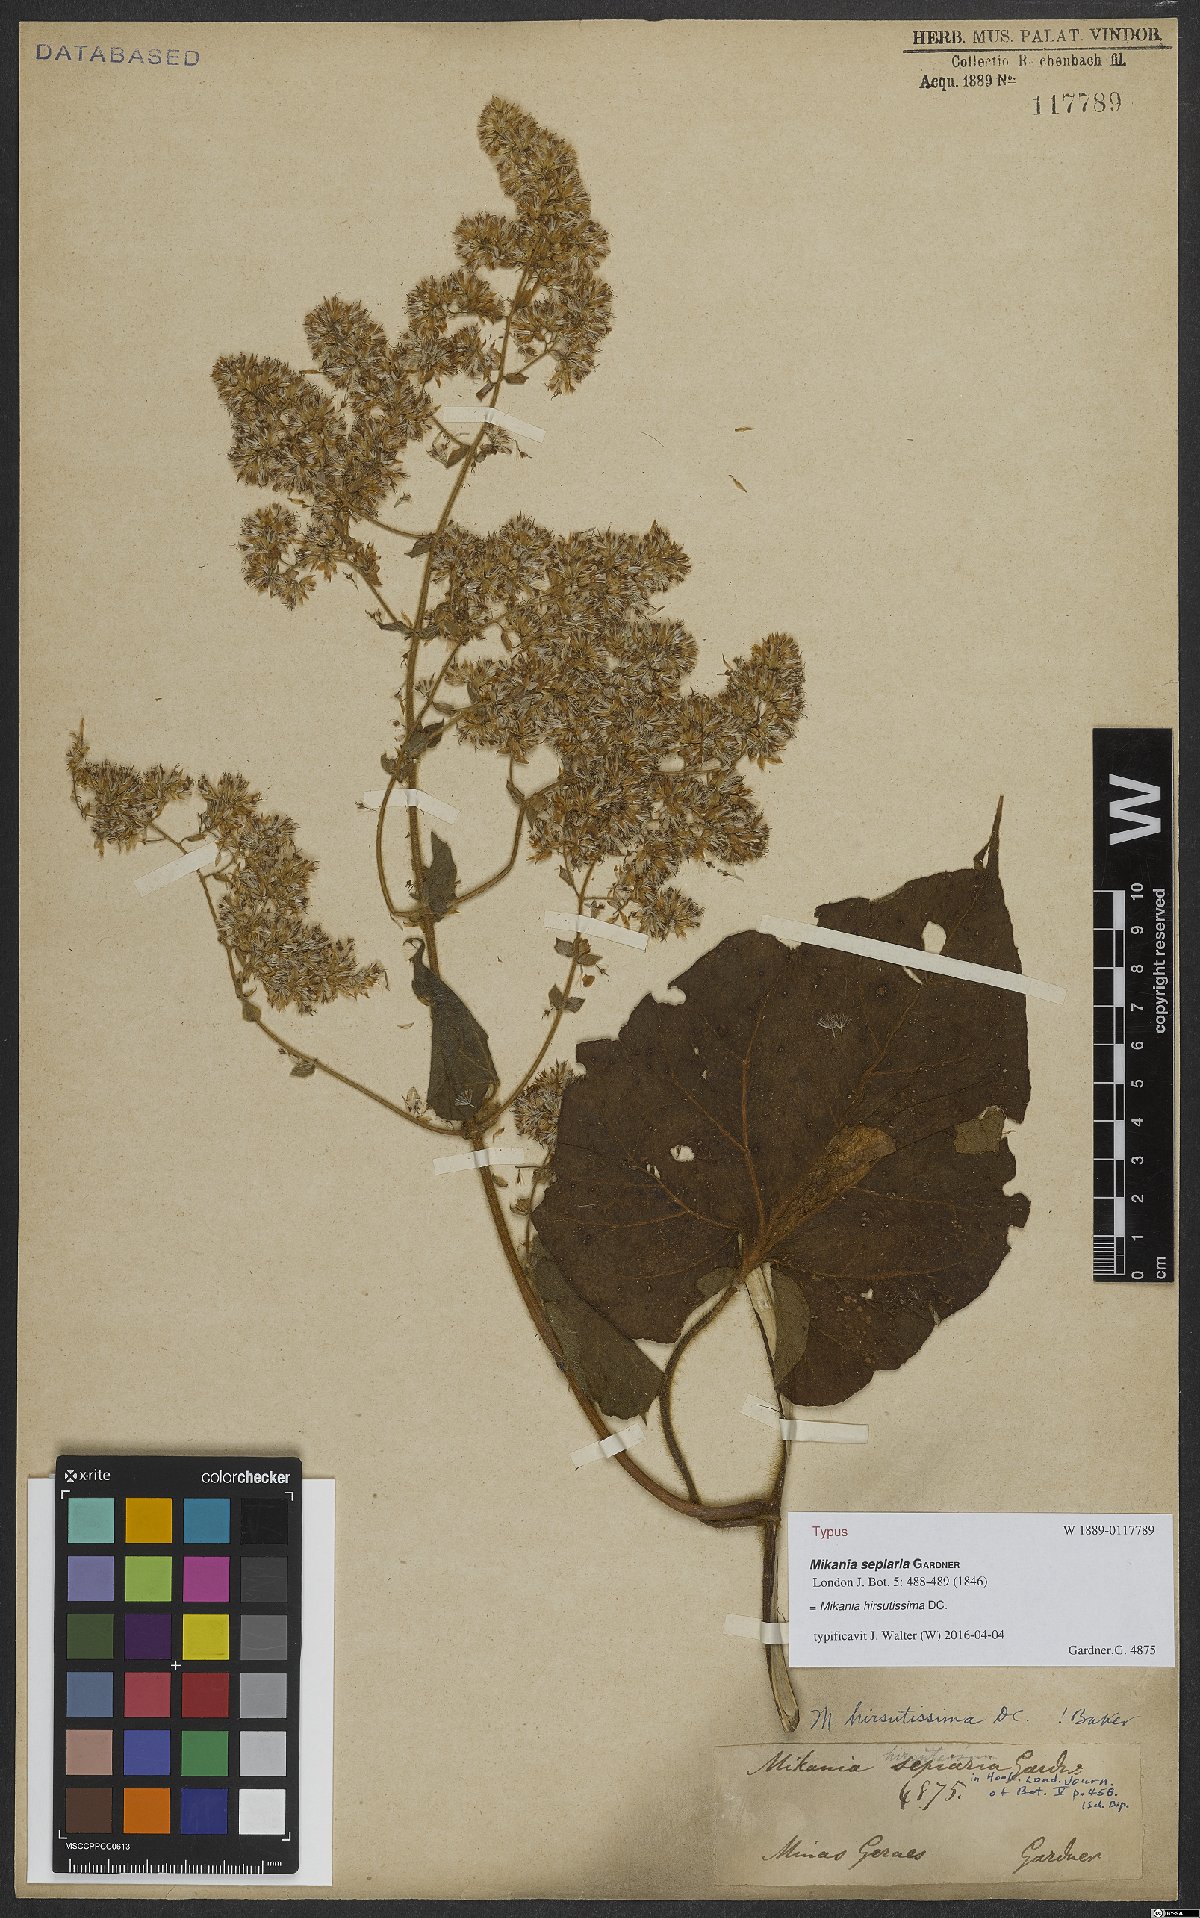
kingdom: Plantae
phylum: Tracheophyta
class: Magnoliopsida
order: Asterales
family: Asteraceae
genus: Mikania
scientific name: Mikania banisteriae
